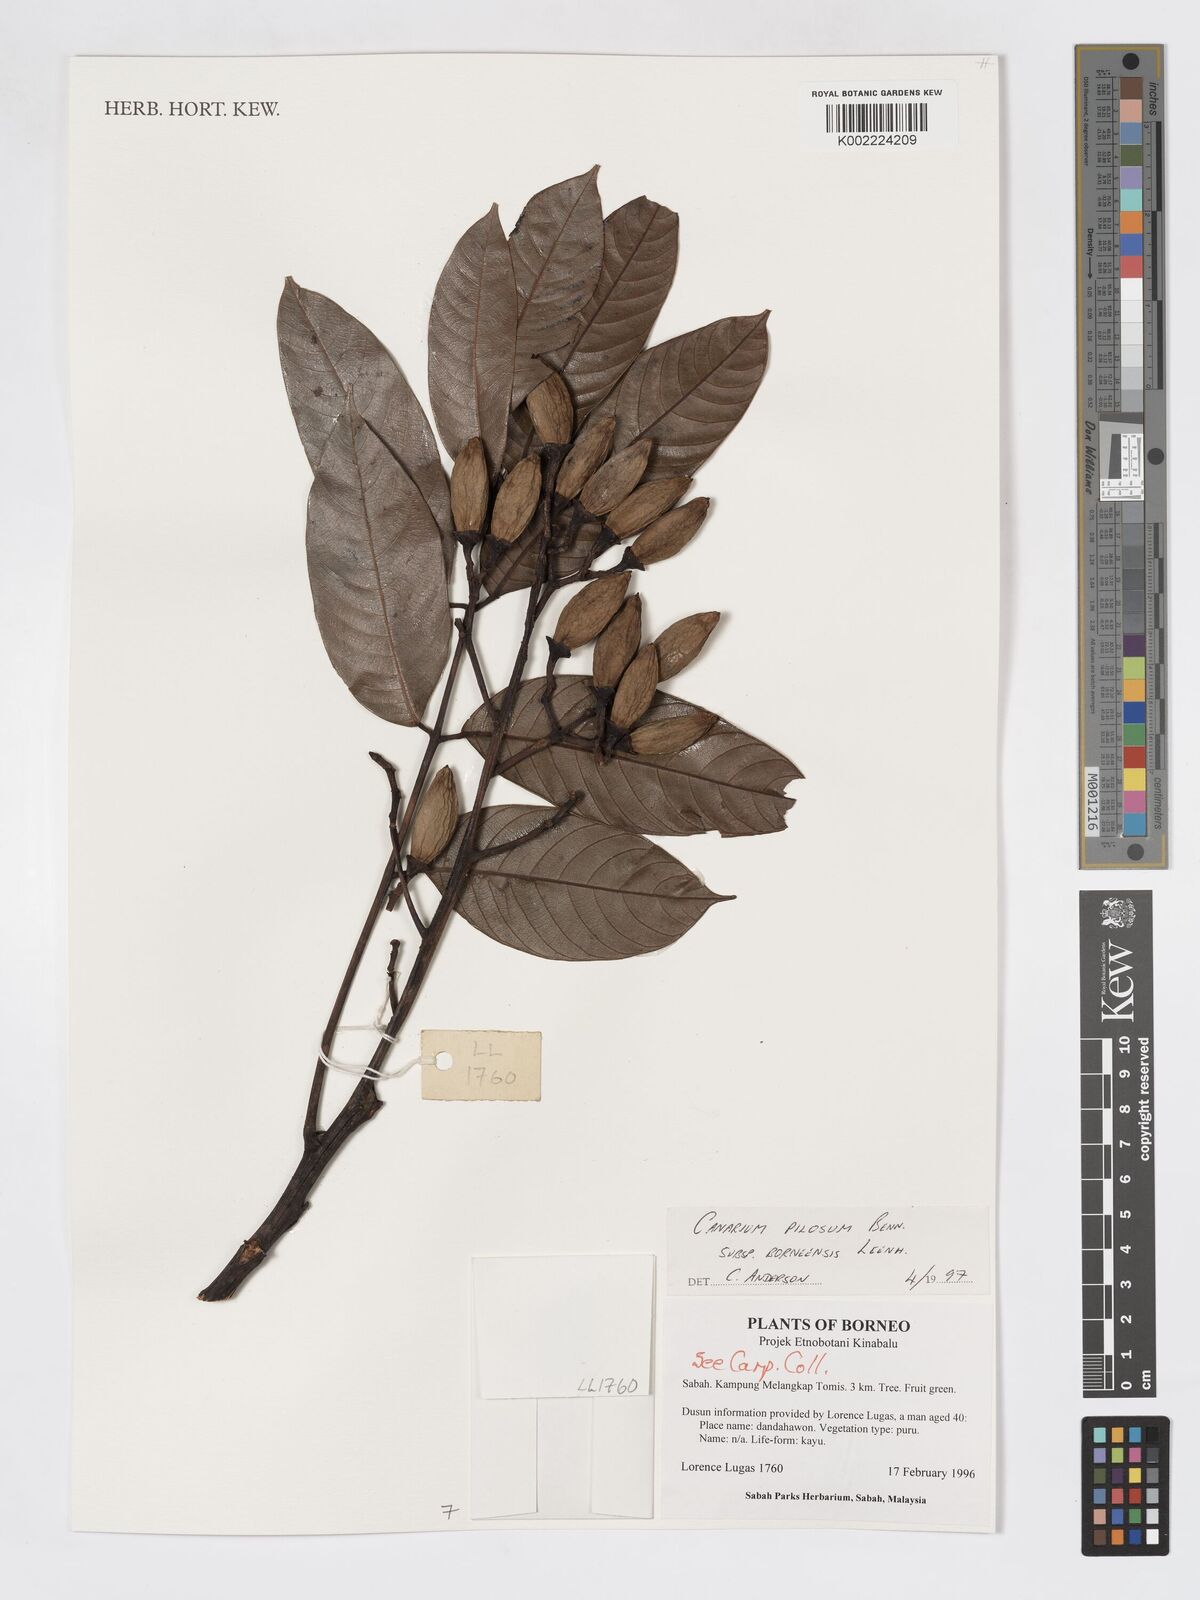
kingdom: Plantae
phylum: Tracheophyta
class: Magnoliopsida
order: Sapindales
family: Burseraceae
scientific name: Burseraceae
